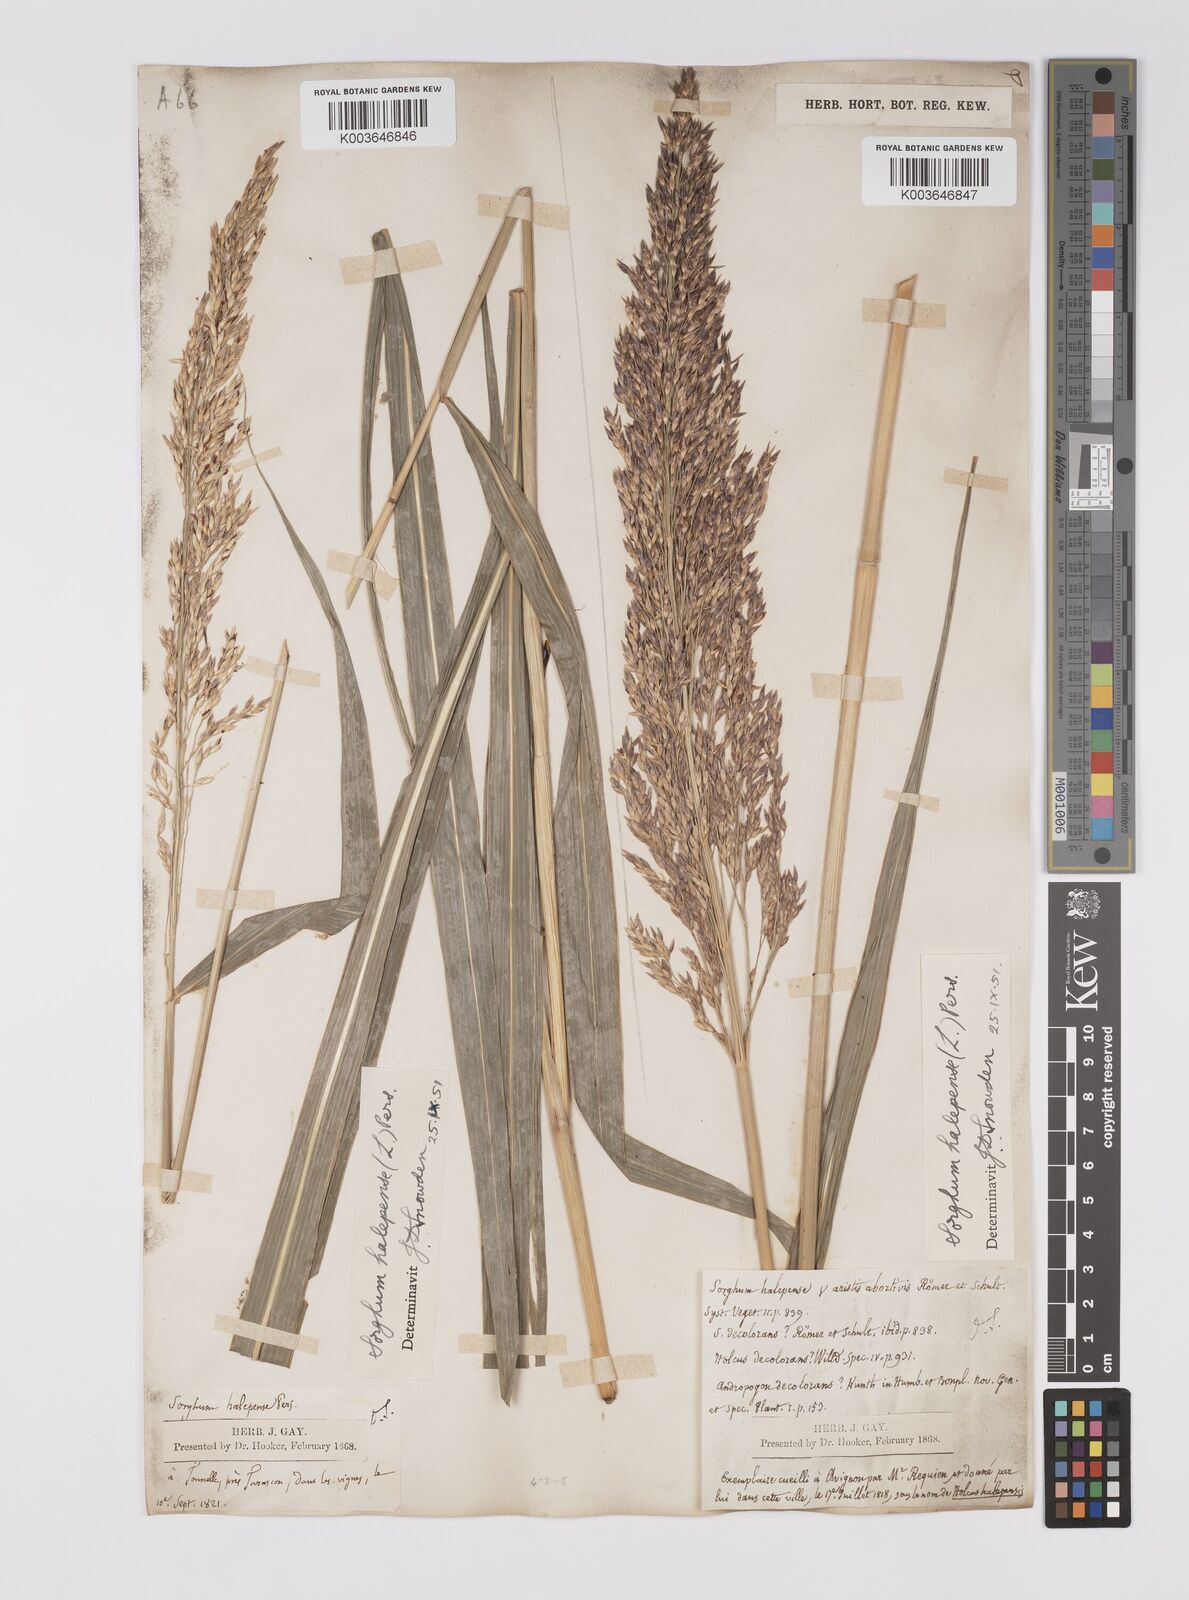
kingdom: Plantae
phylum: Tracheophyta
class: Liliopsida
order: Poales
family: Poaceae
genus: Sorghum
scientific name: Sorghum halepense
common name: Johnson-grass
